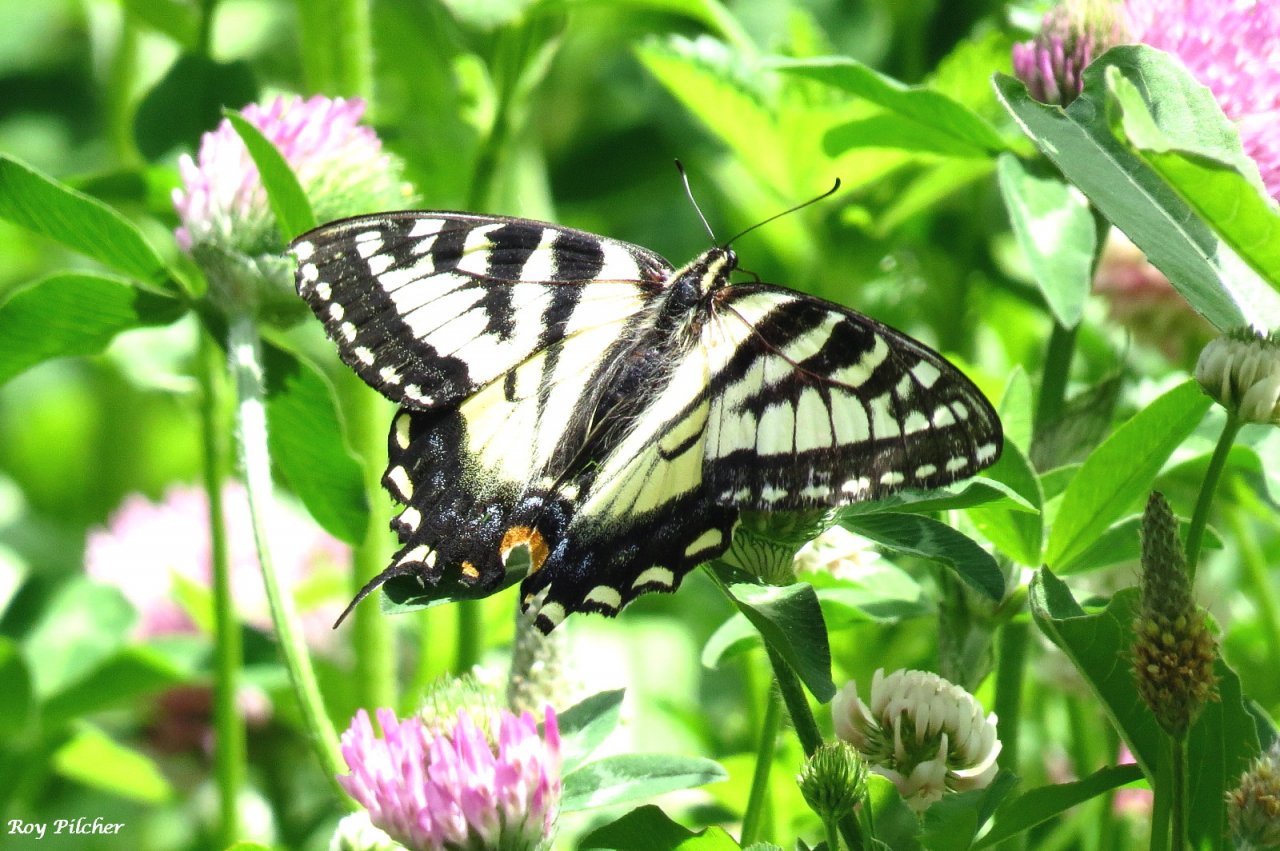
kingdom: Animalia
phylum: Arthropoda
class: Insecta
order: Lepidoptera
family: Papilionidae
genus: Papilio
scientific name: Papilio
